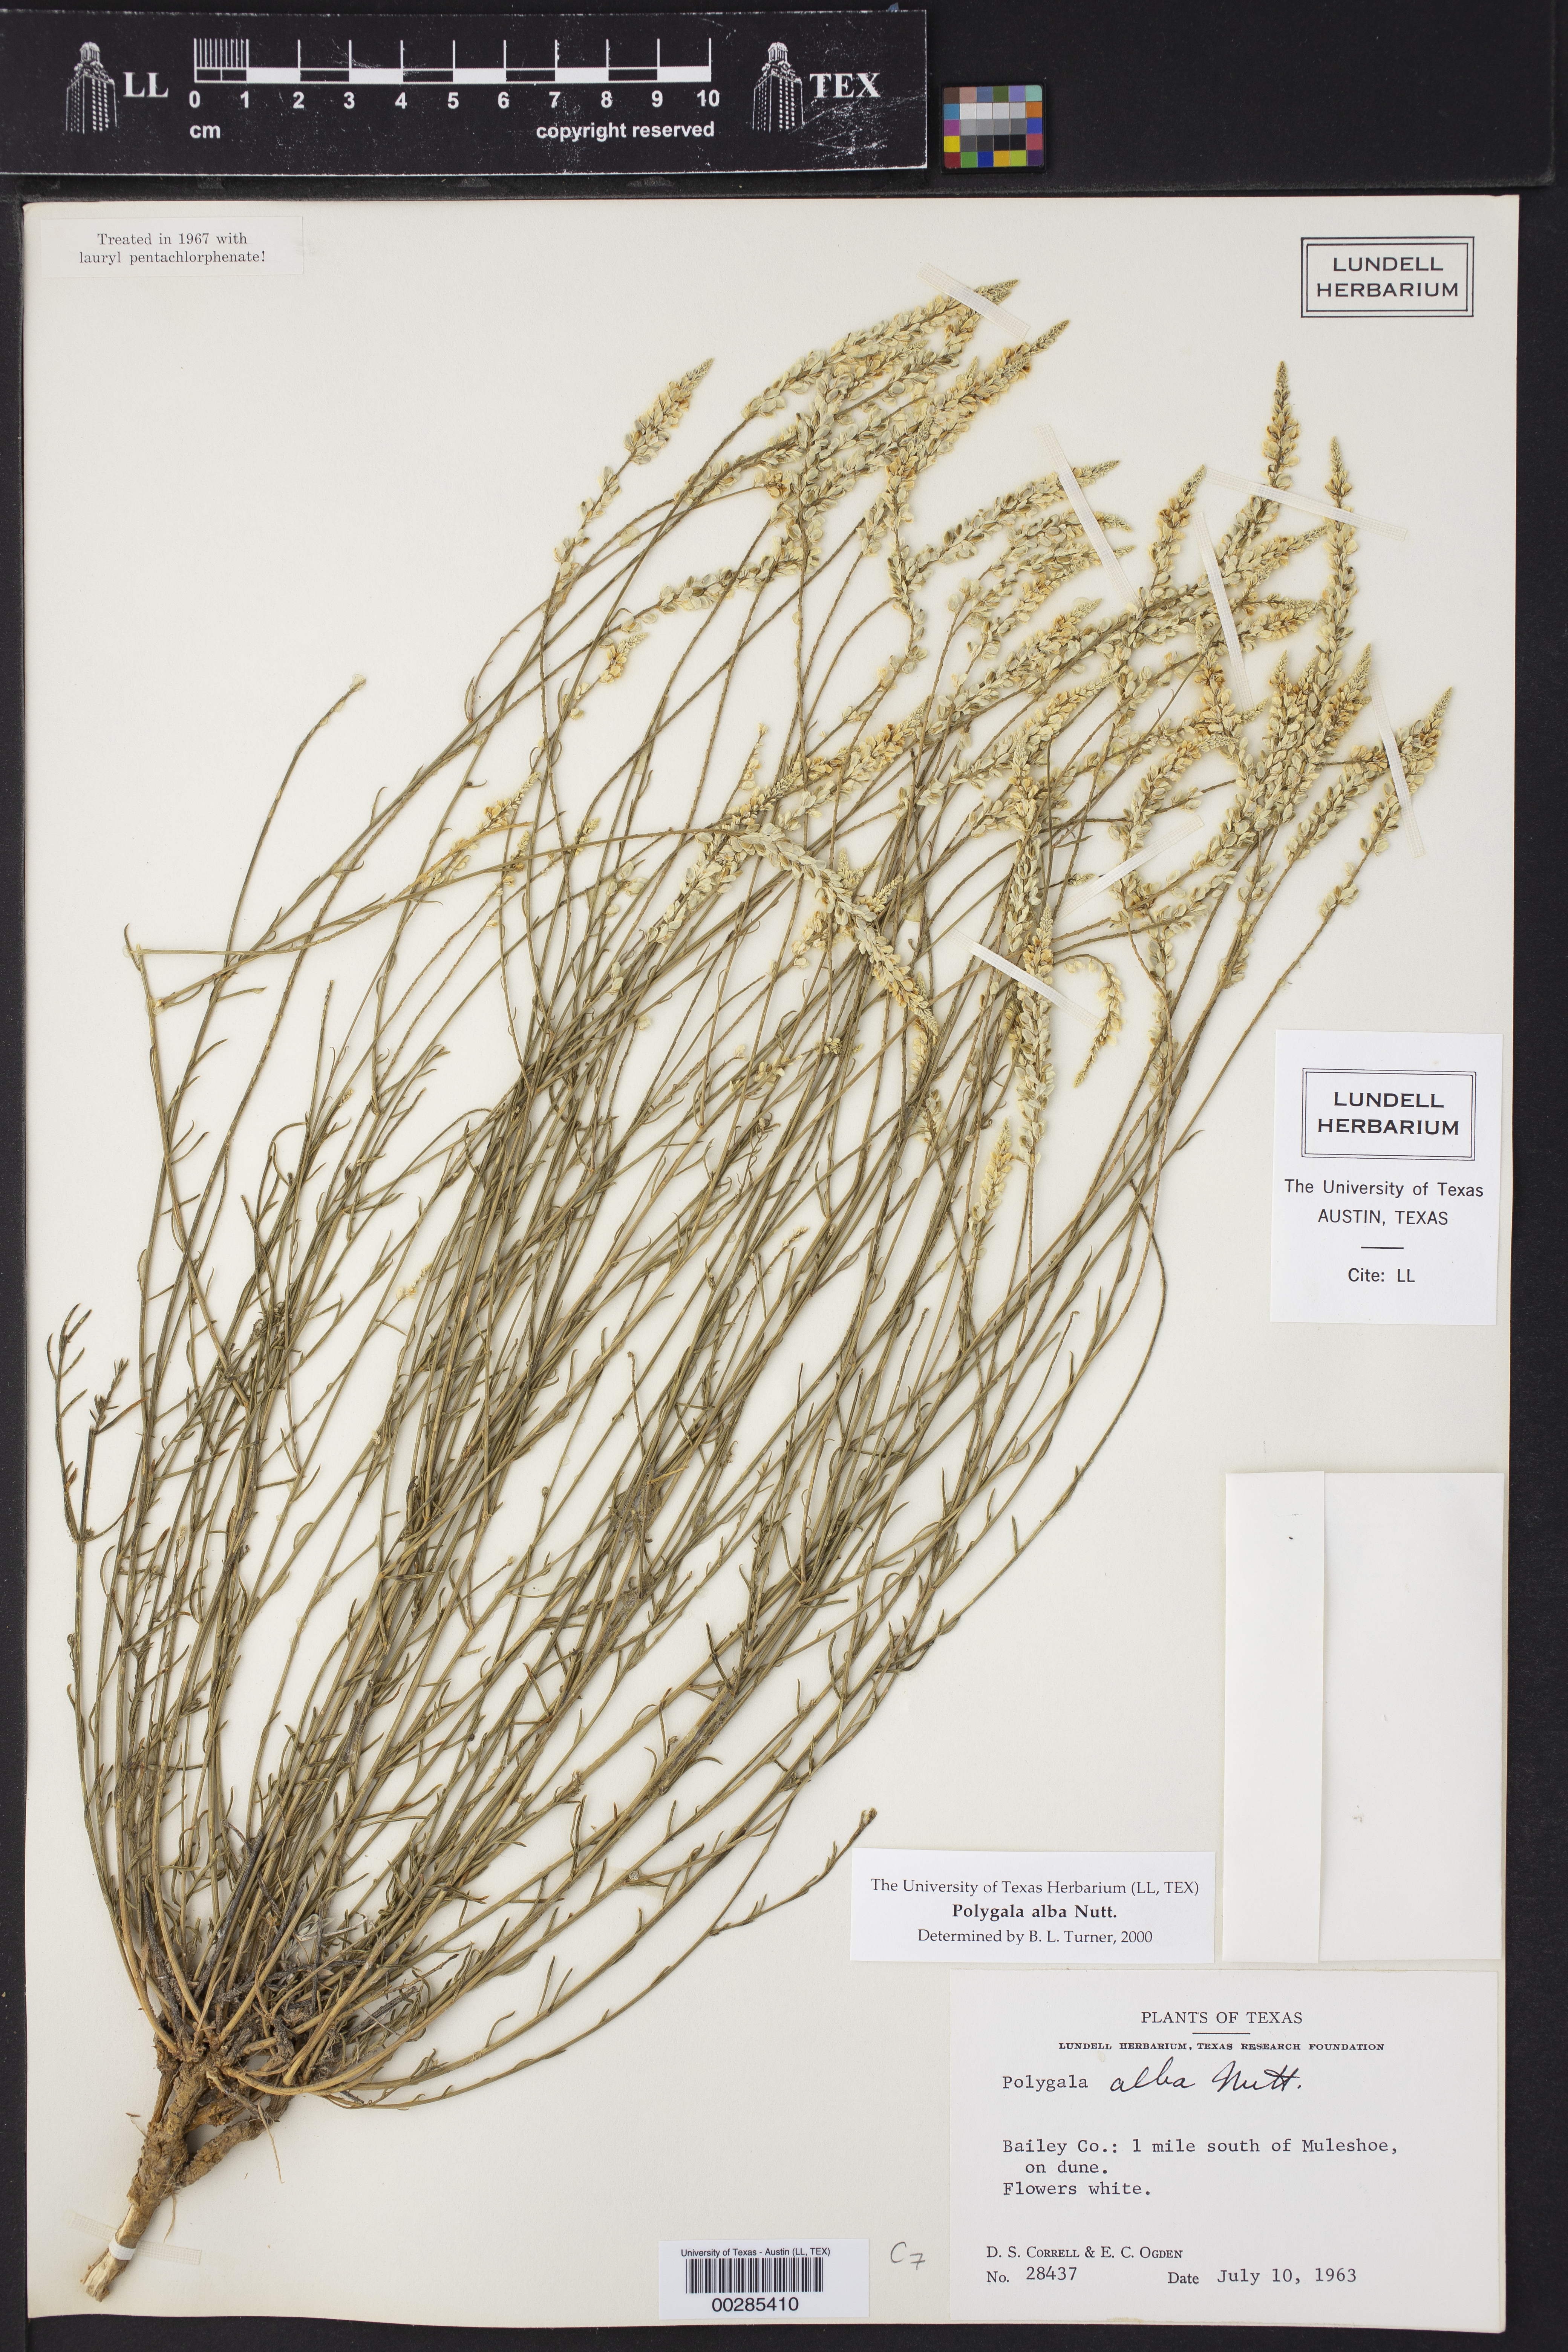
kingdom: Plantae
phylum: Tracheophyta
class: Magnoliopsida
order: Fabales
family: Polygalaceae
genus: Polygala
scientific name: Polygala alba
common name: White milkwort
